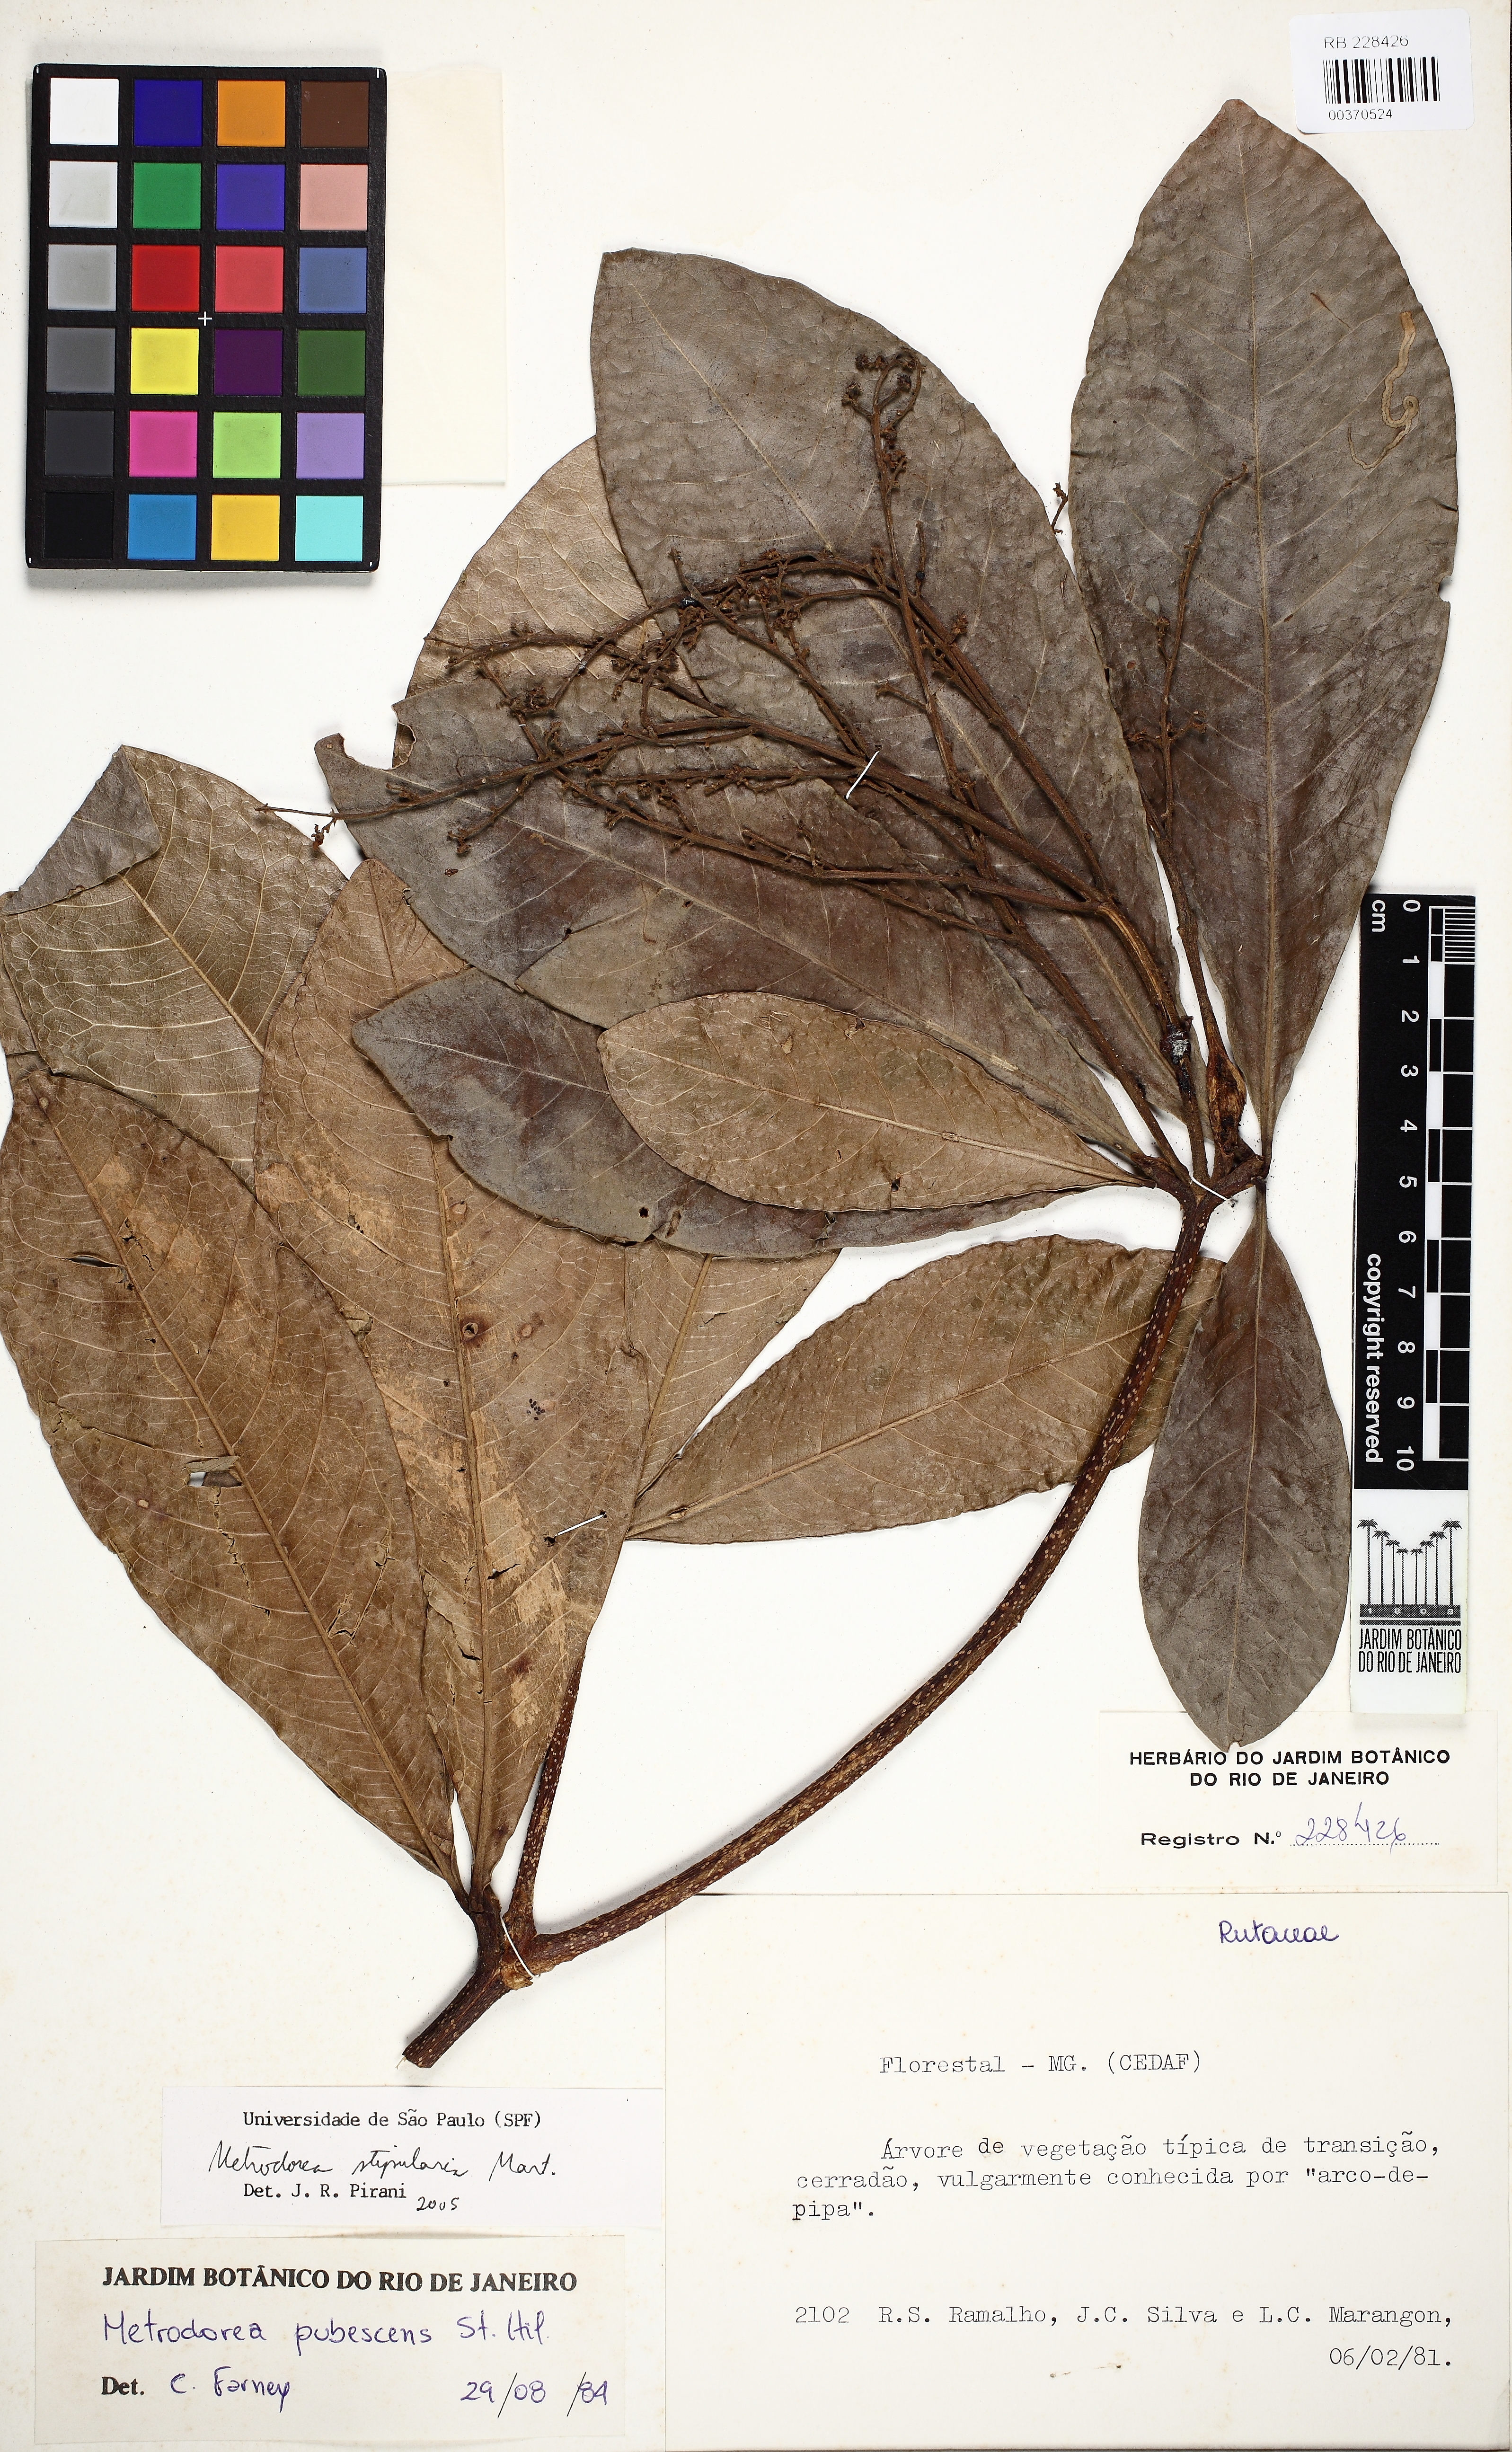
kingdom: Plantae
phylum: Tracheophyta
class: Magnoliopsida
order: Sapindales
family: Rutaceae
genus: Metrodorea
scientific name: Metrodorea stipularis
